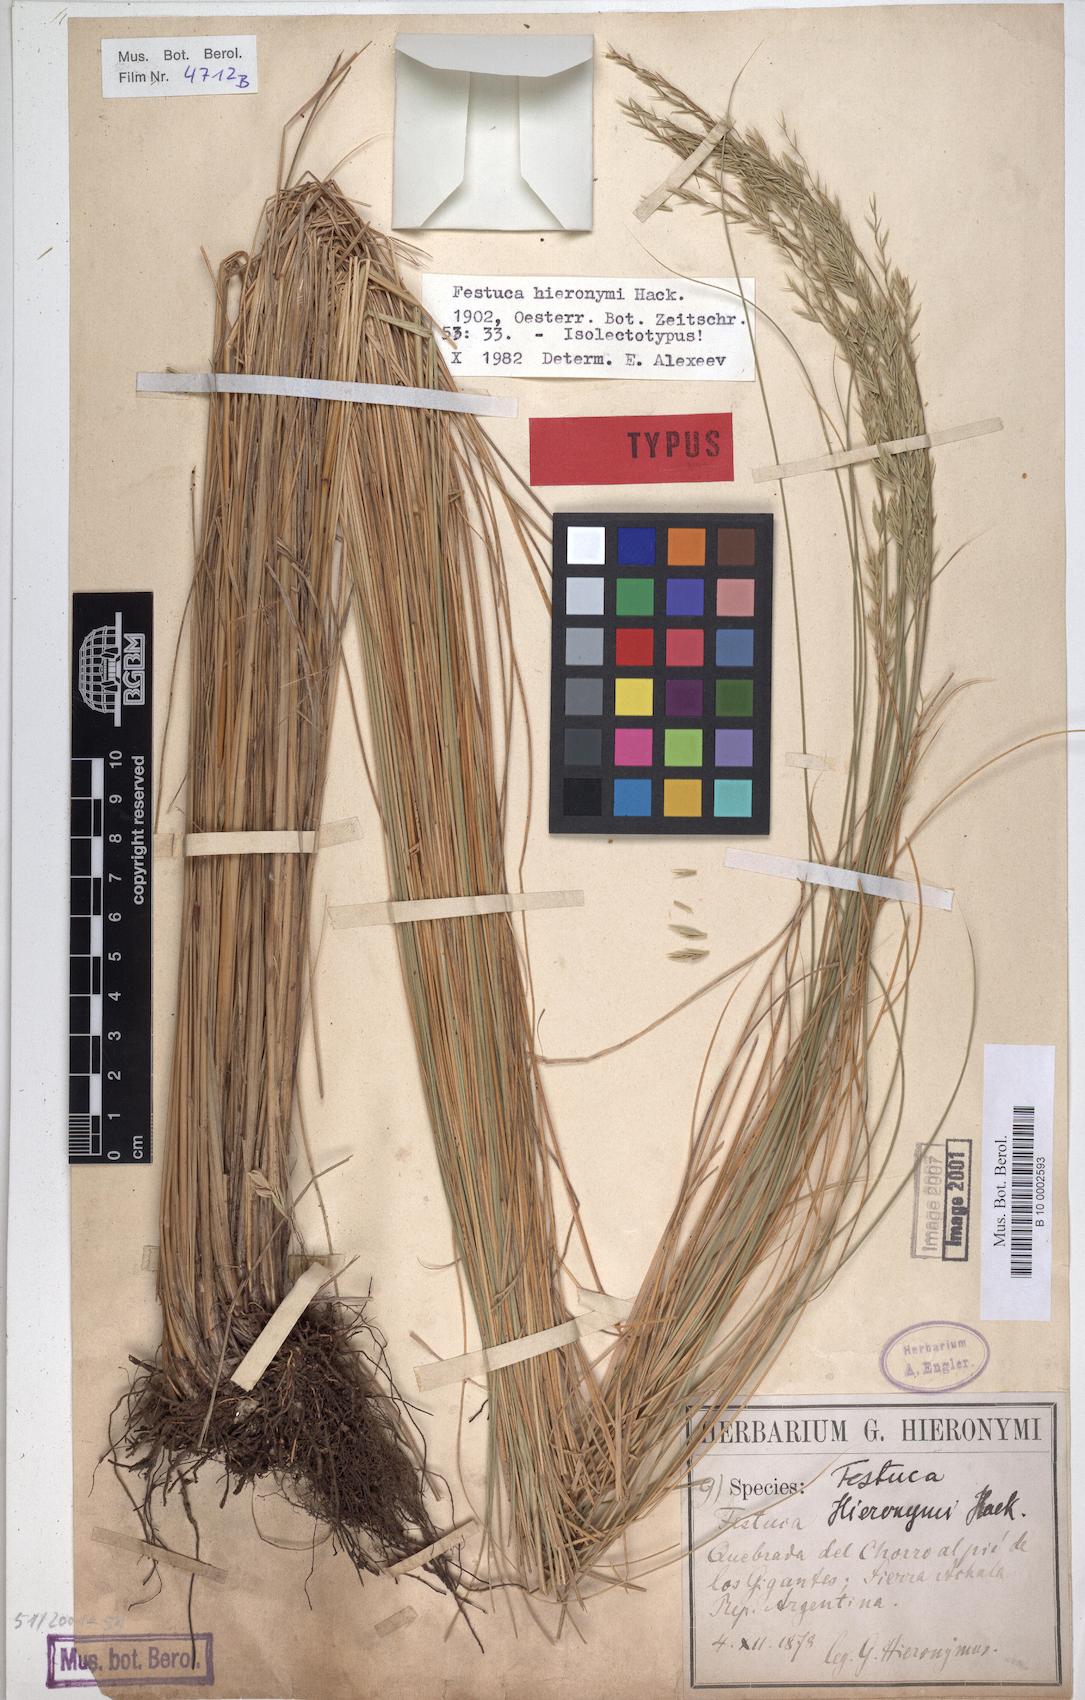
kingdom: Plantae
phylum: Tracheophyta
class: Liliopsida
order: Poales
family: Poaceae
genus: Festuca
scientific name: Festuca hieronymi
